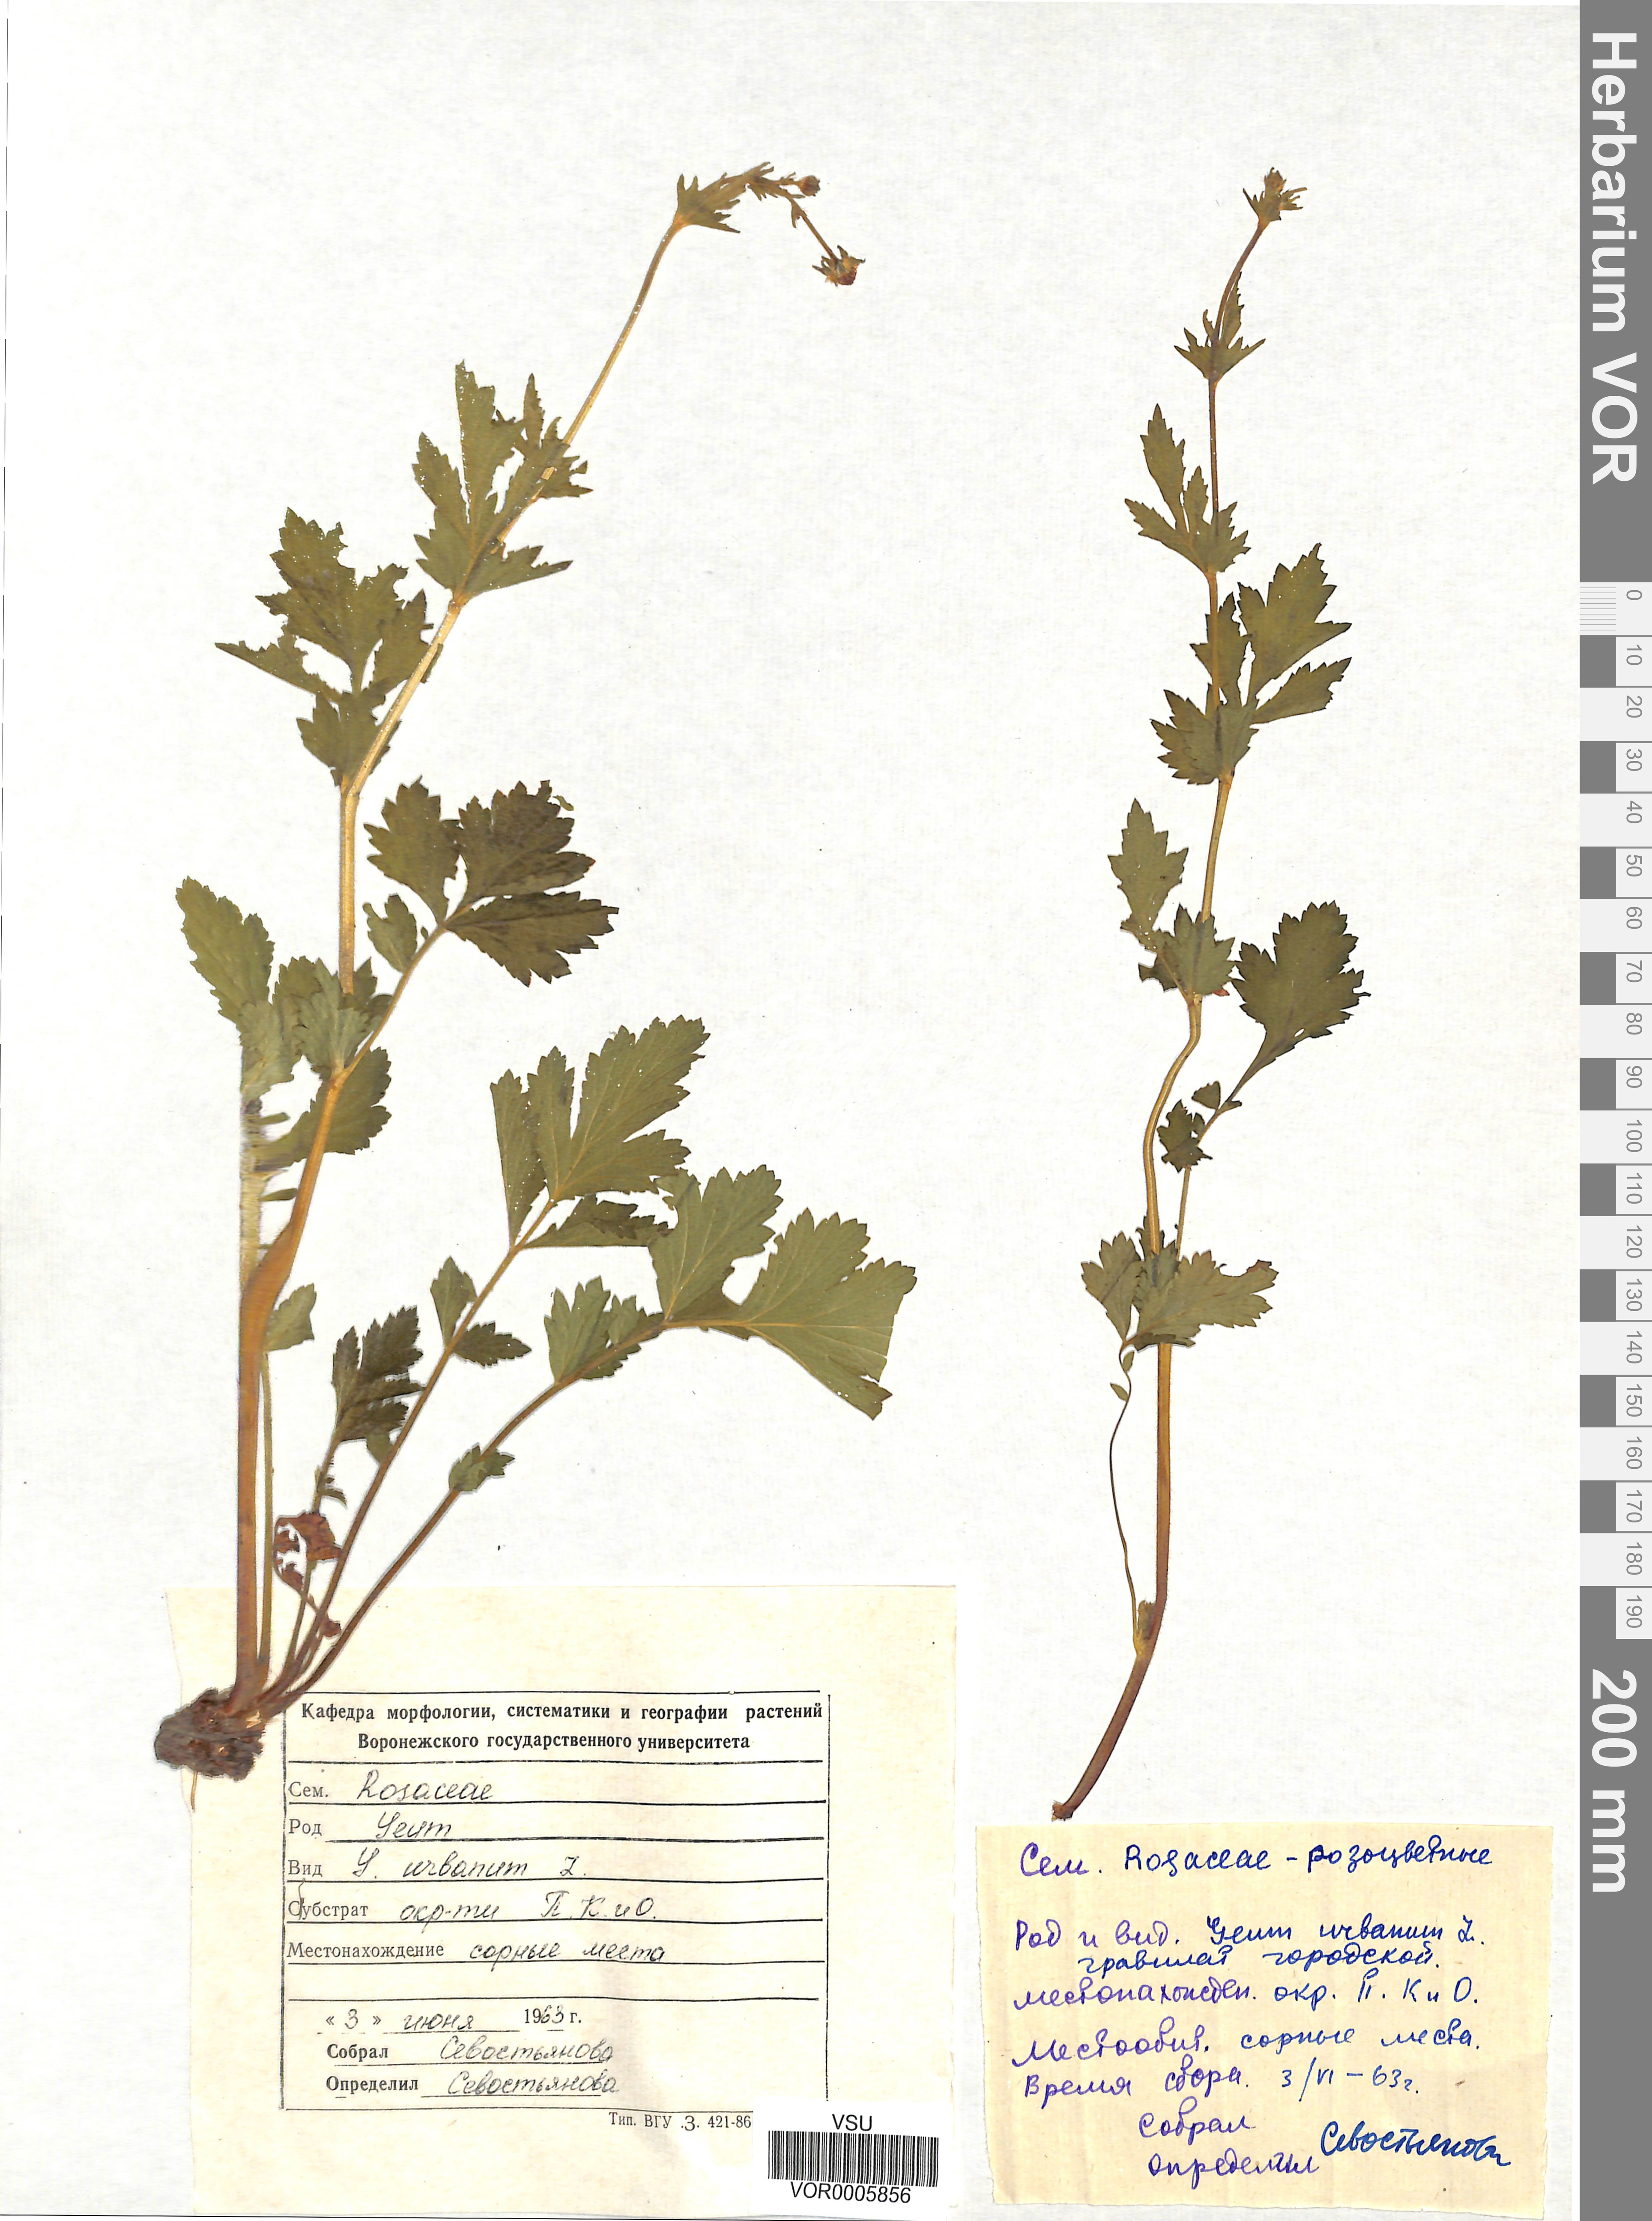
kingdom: Plantae
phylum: Tracheophyta
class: Magnoliopsida
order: Rosales
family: Rosaceae
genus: Geum
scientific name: Geum urbanum
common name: Wood avens
